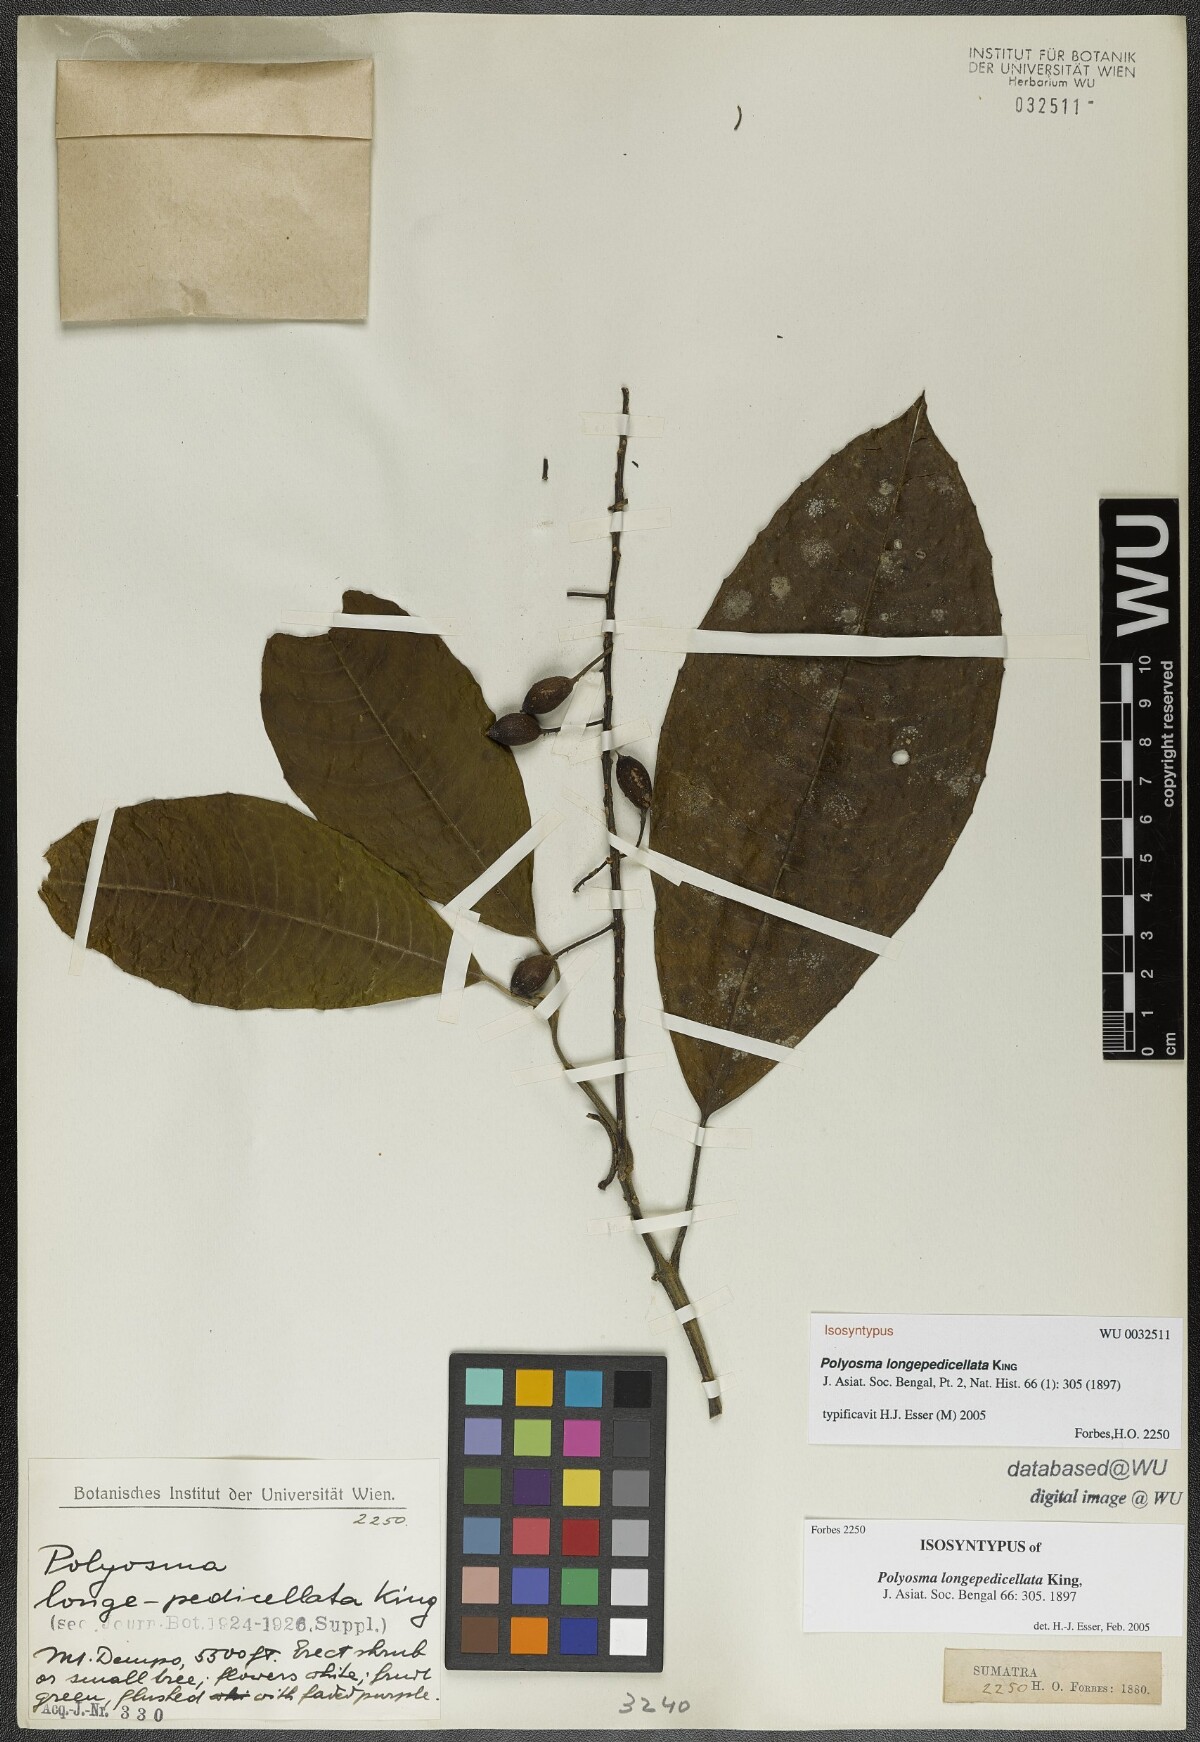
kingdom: Plantae
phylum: Tracheophyta
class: Magnoliopsida
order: Escalloniales
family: Escalloniaceae
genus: Polyosma
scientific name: Polyosma longepedicellata
